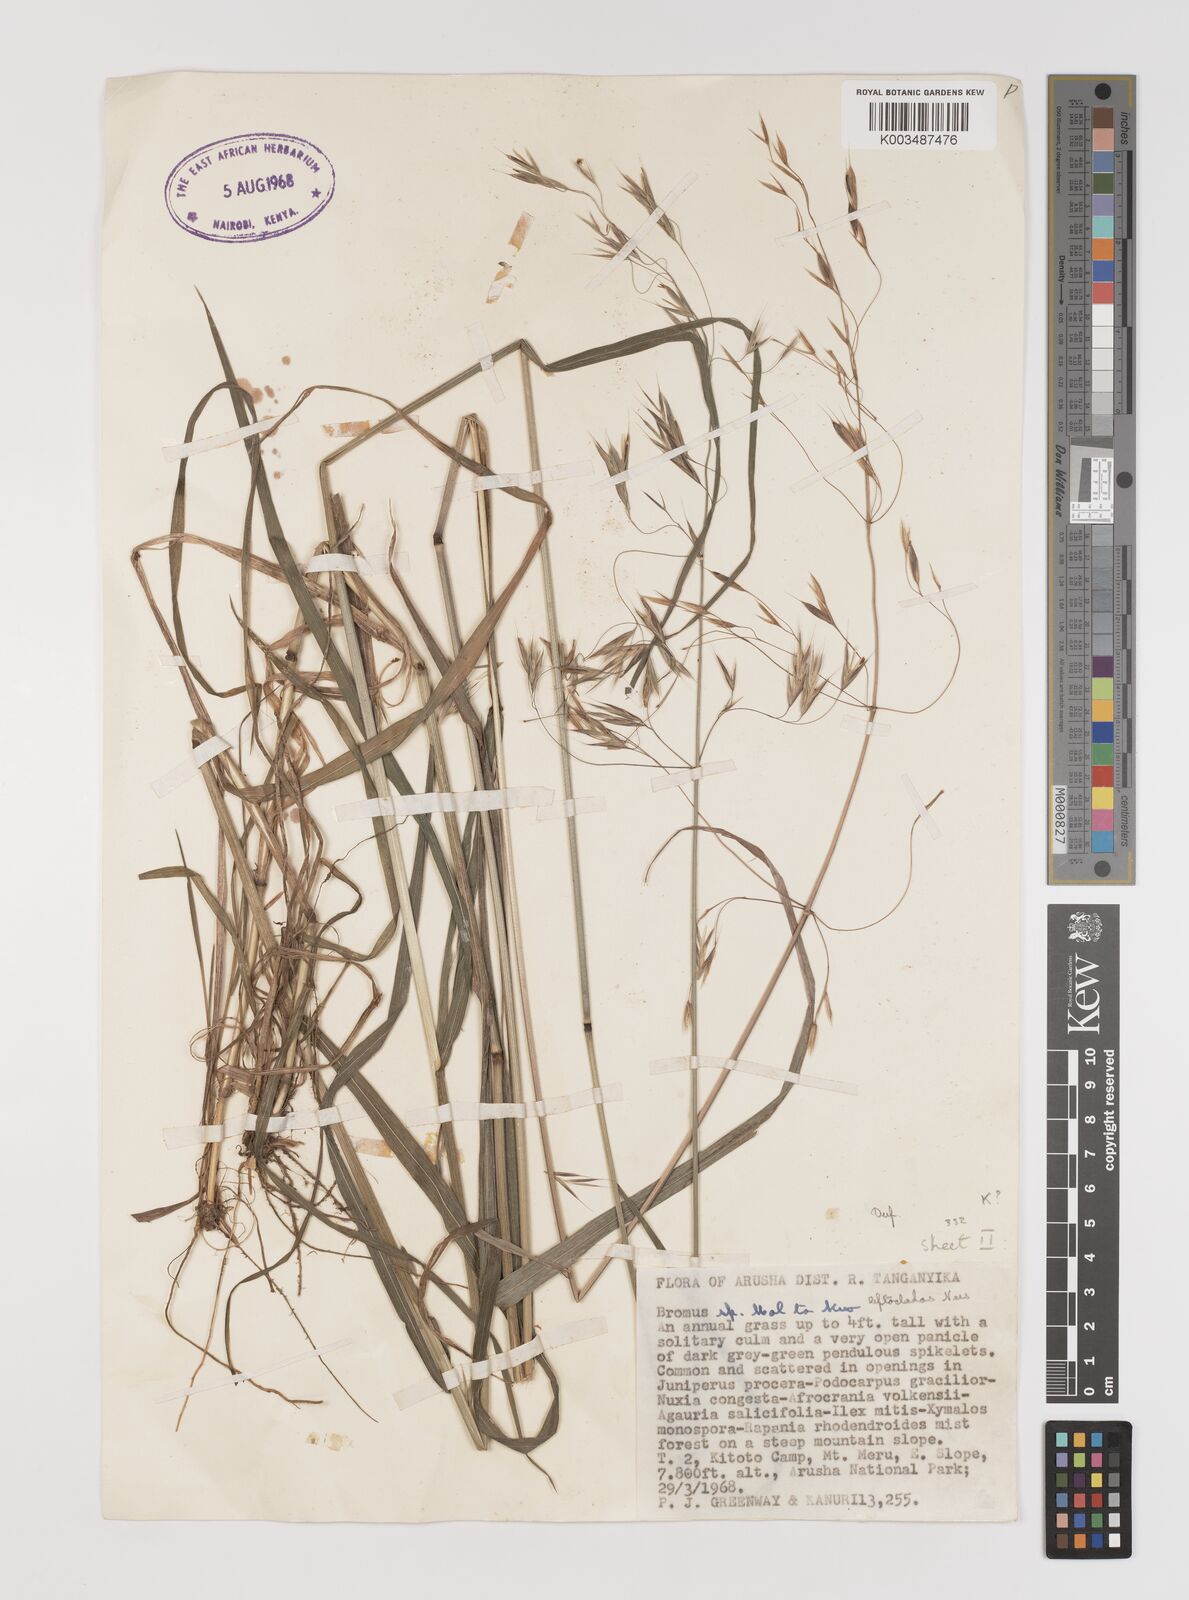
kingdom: Plantae
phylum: Tracheophyta
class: Liliopsida
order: Poales
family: Poaceae
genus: Bromus
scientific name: Bromus leptoclados
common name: Mountain bromegrass
